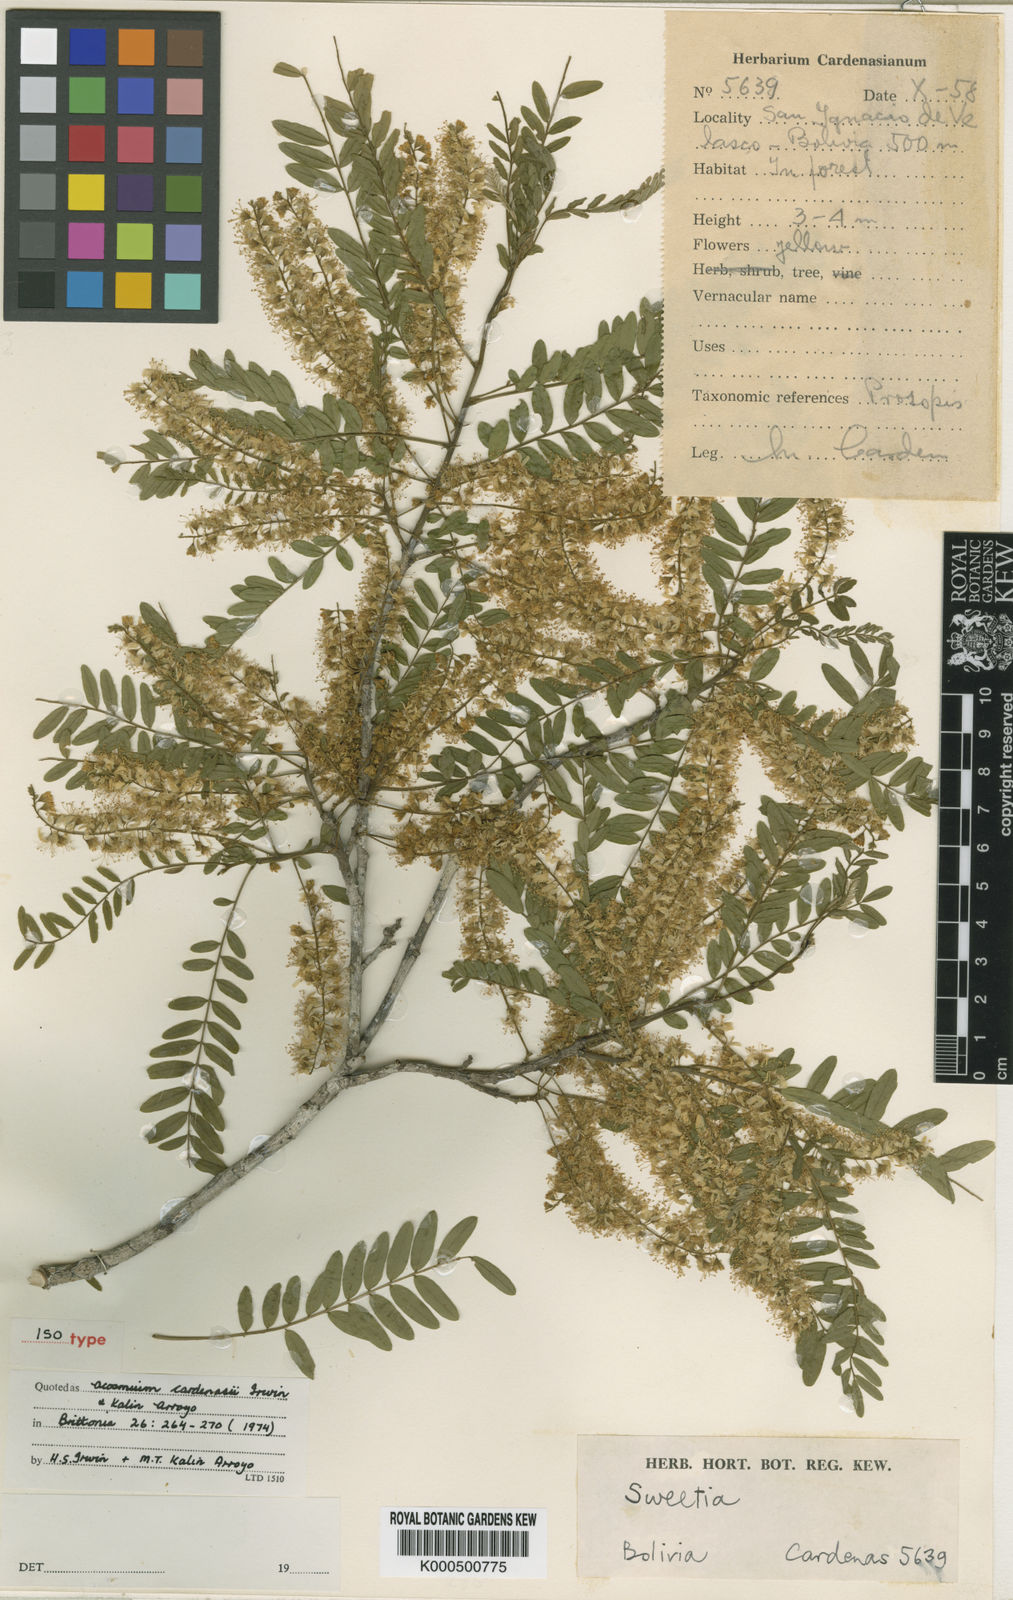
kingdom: Plantae
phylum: Tracheophyta
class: Magnoliopsida
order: Fabales
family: Fabaceae
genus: Acosmium
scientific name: Acosmium cardenasii
